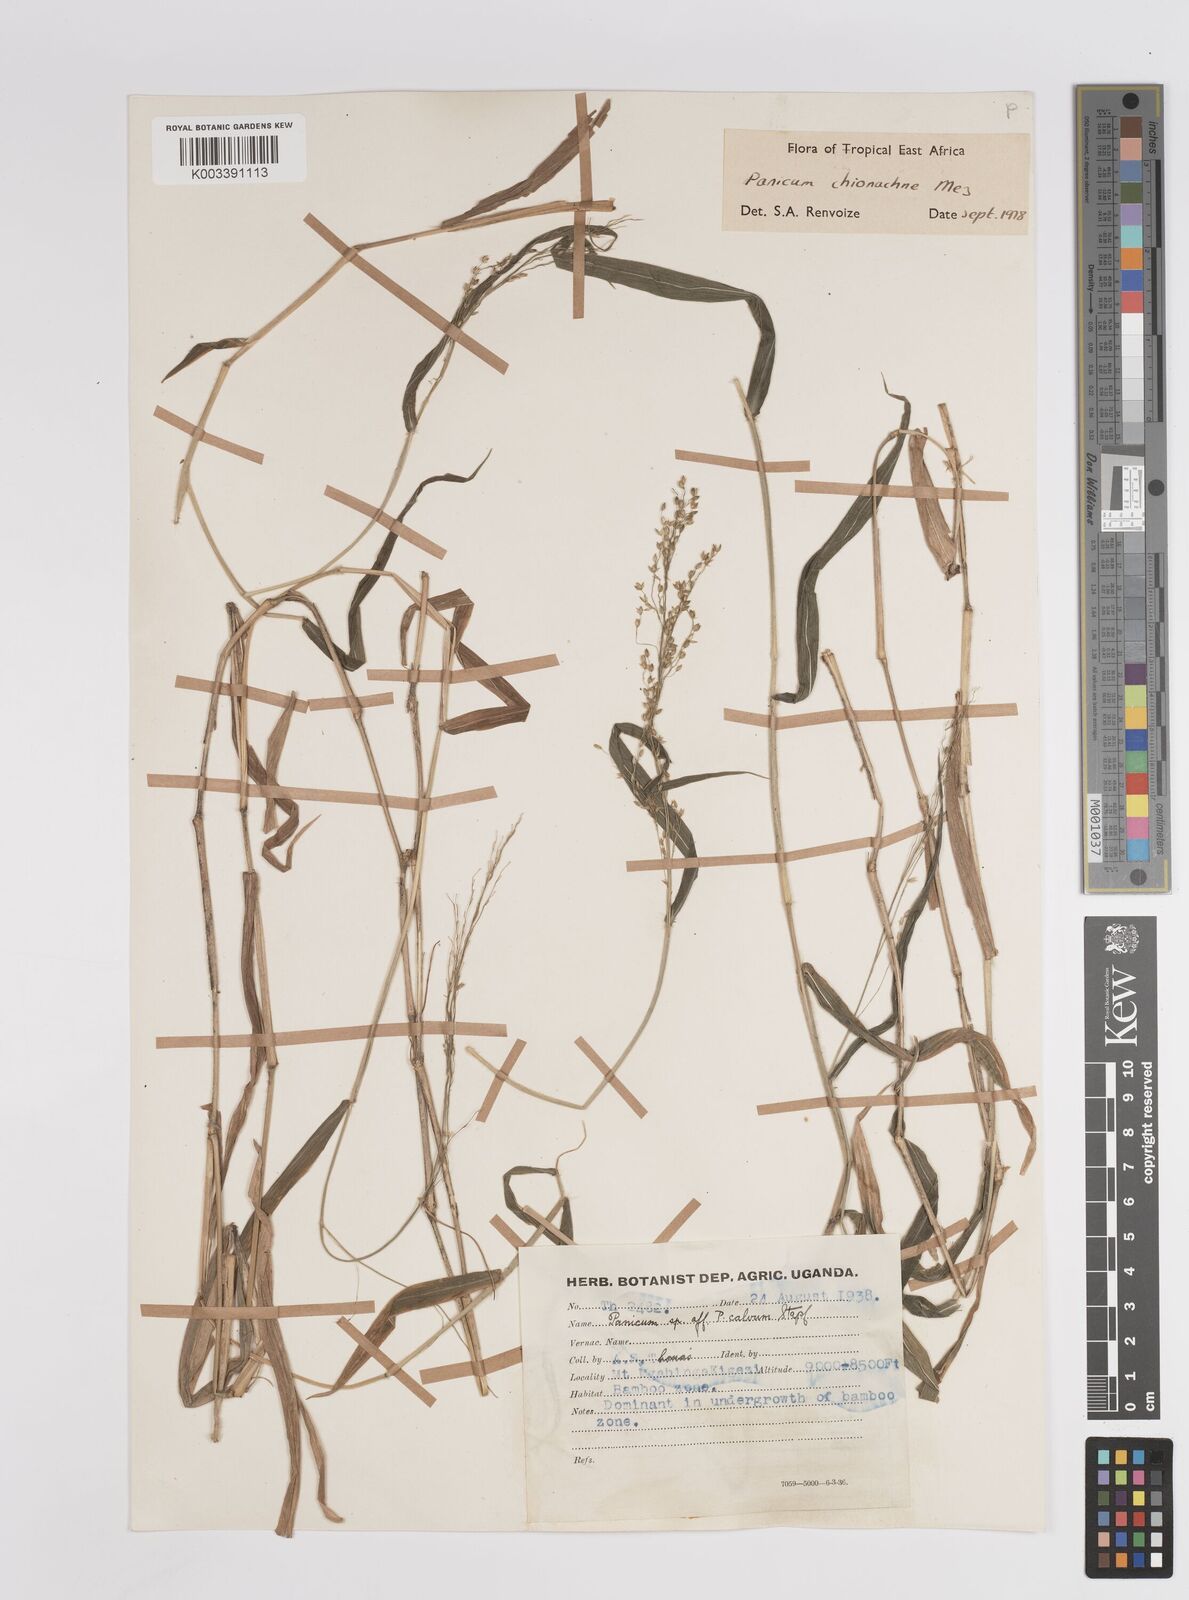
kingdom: Plantae
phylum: Tracheophyta
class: Liliopsida
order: Poales
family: Poaceae
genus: Panicum
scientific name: Panicum chionachne
